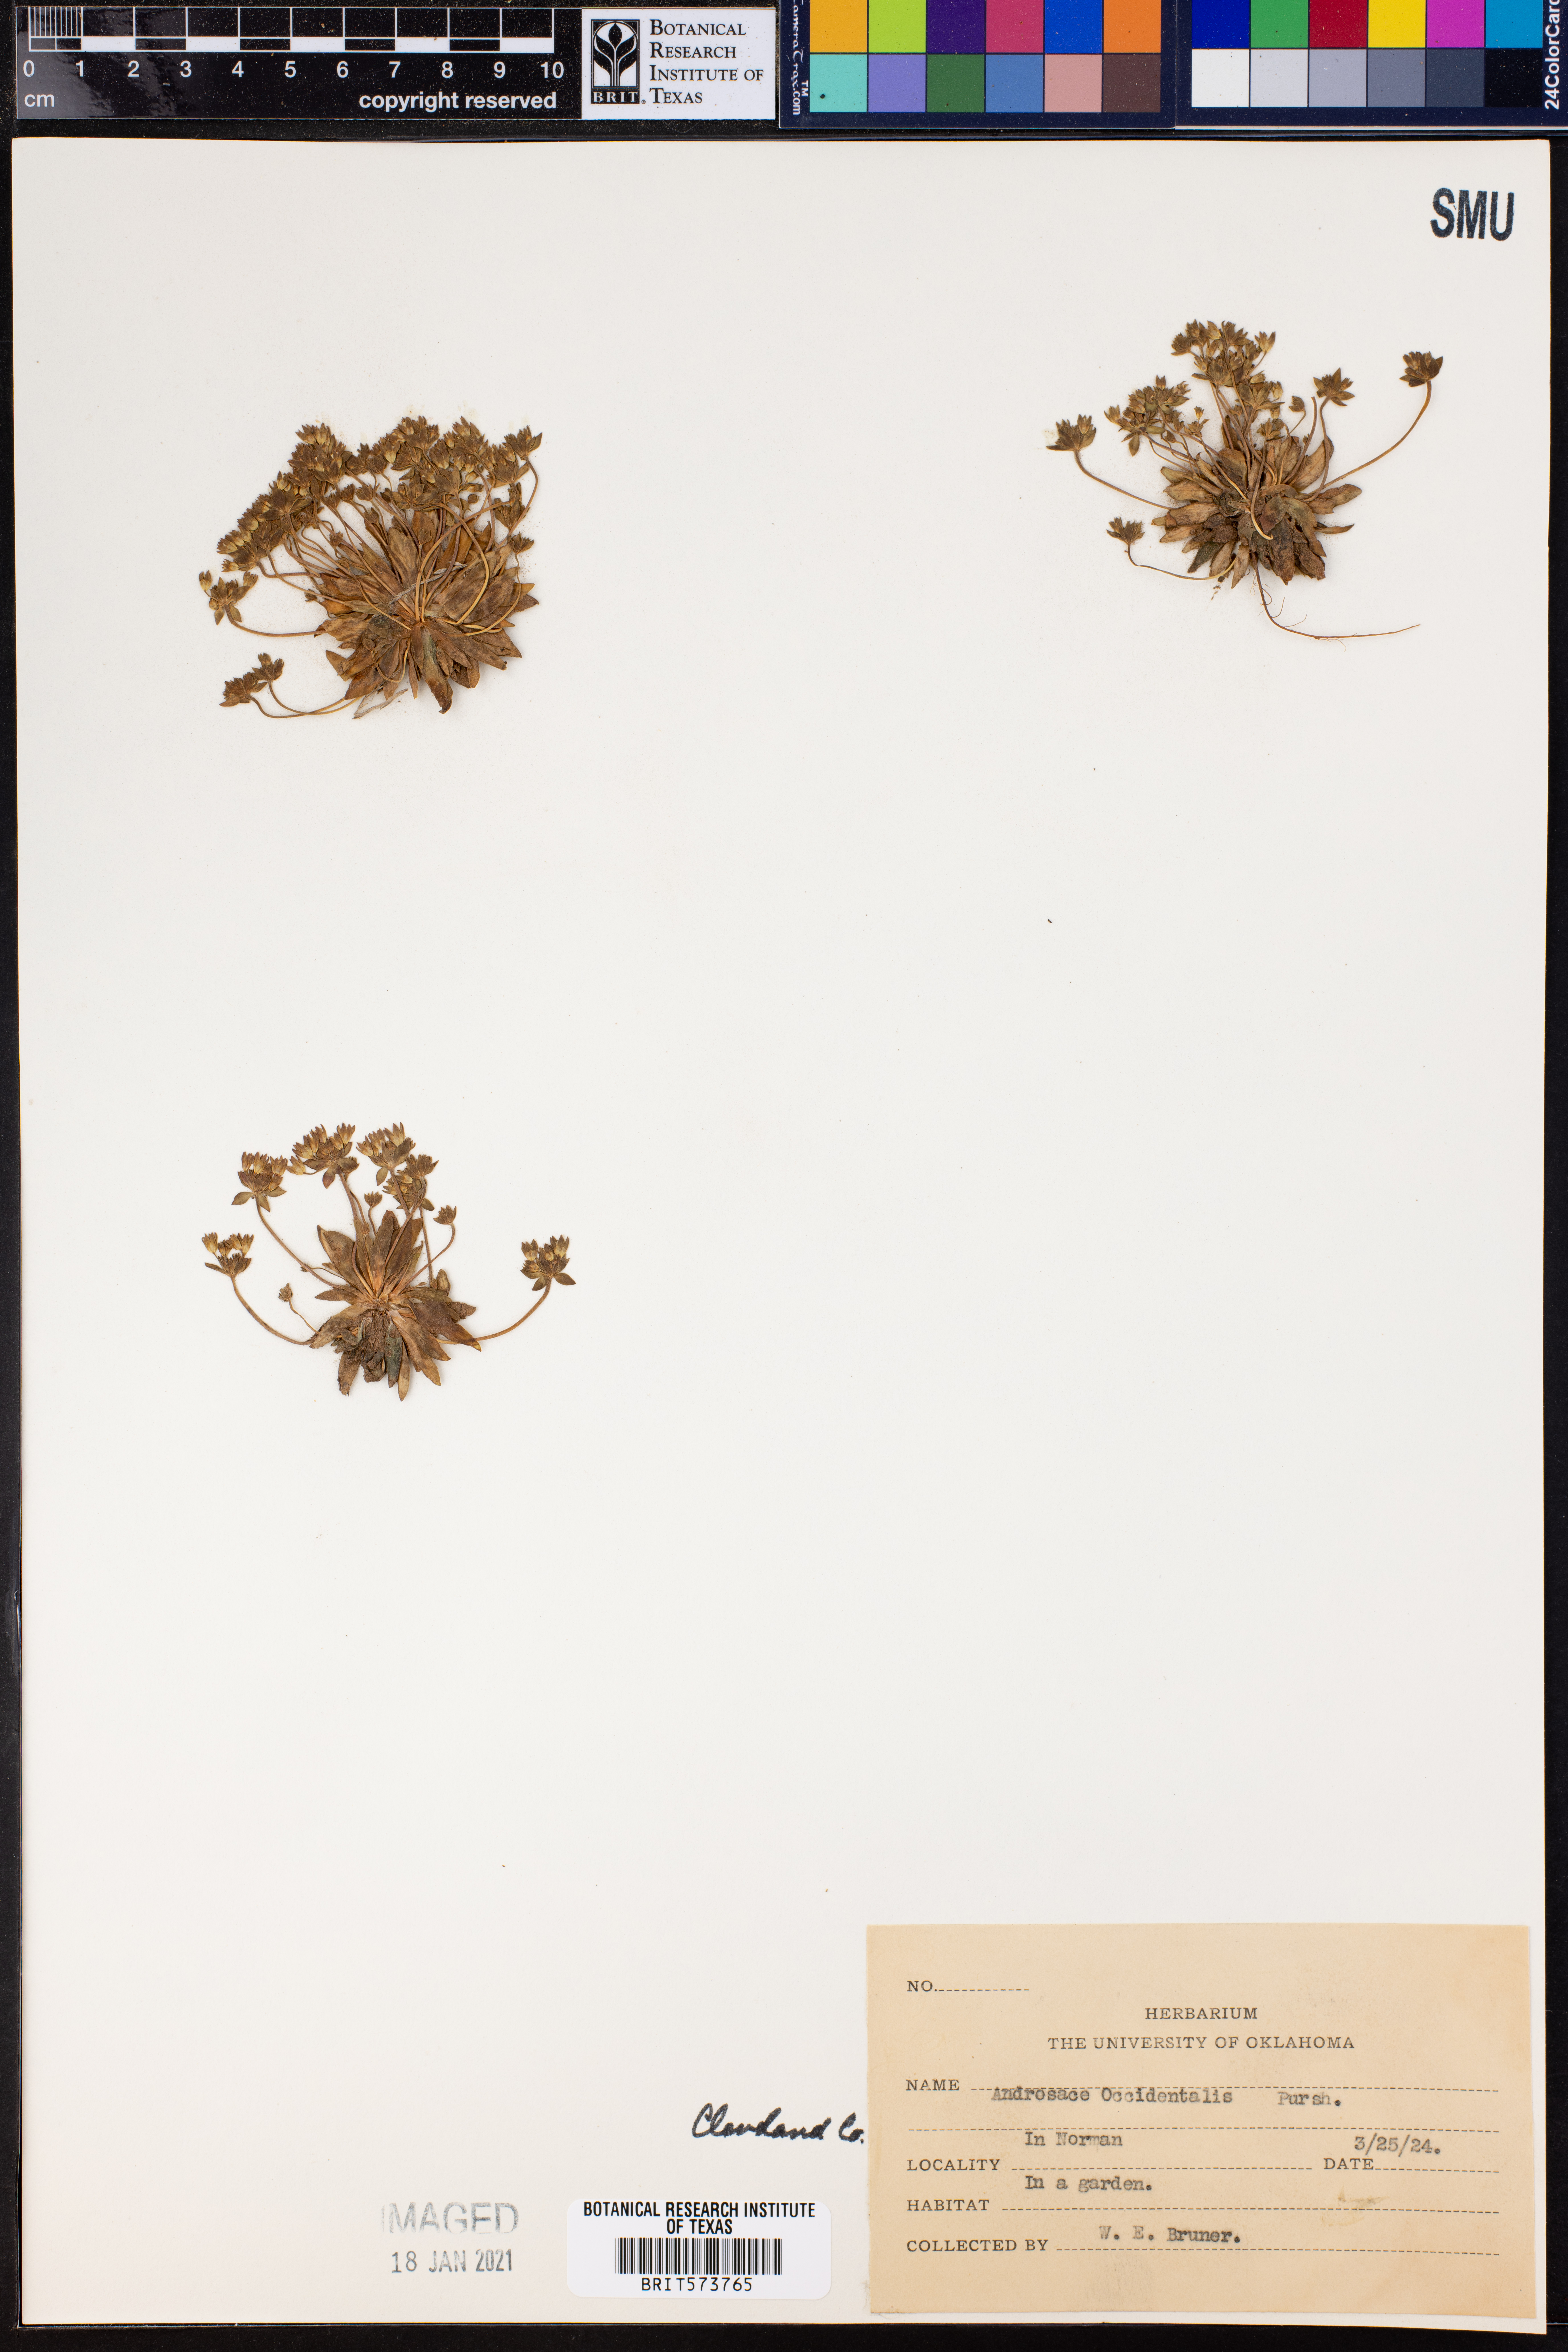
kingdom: Plantae
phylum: Tracheophyta
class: Magnoliopsida
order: Ericales
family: Primulaceae
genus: Androsace
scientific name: Androsace occidentalis
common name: West rock-jasmine
